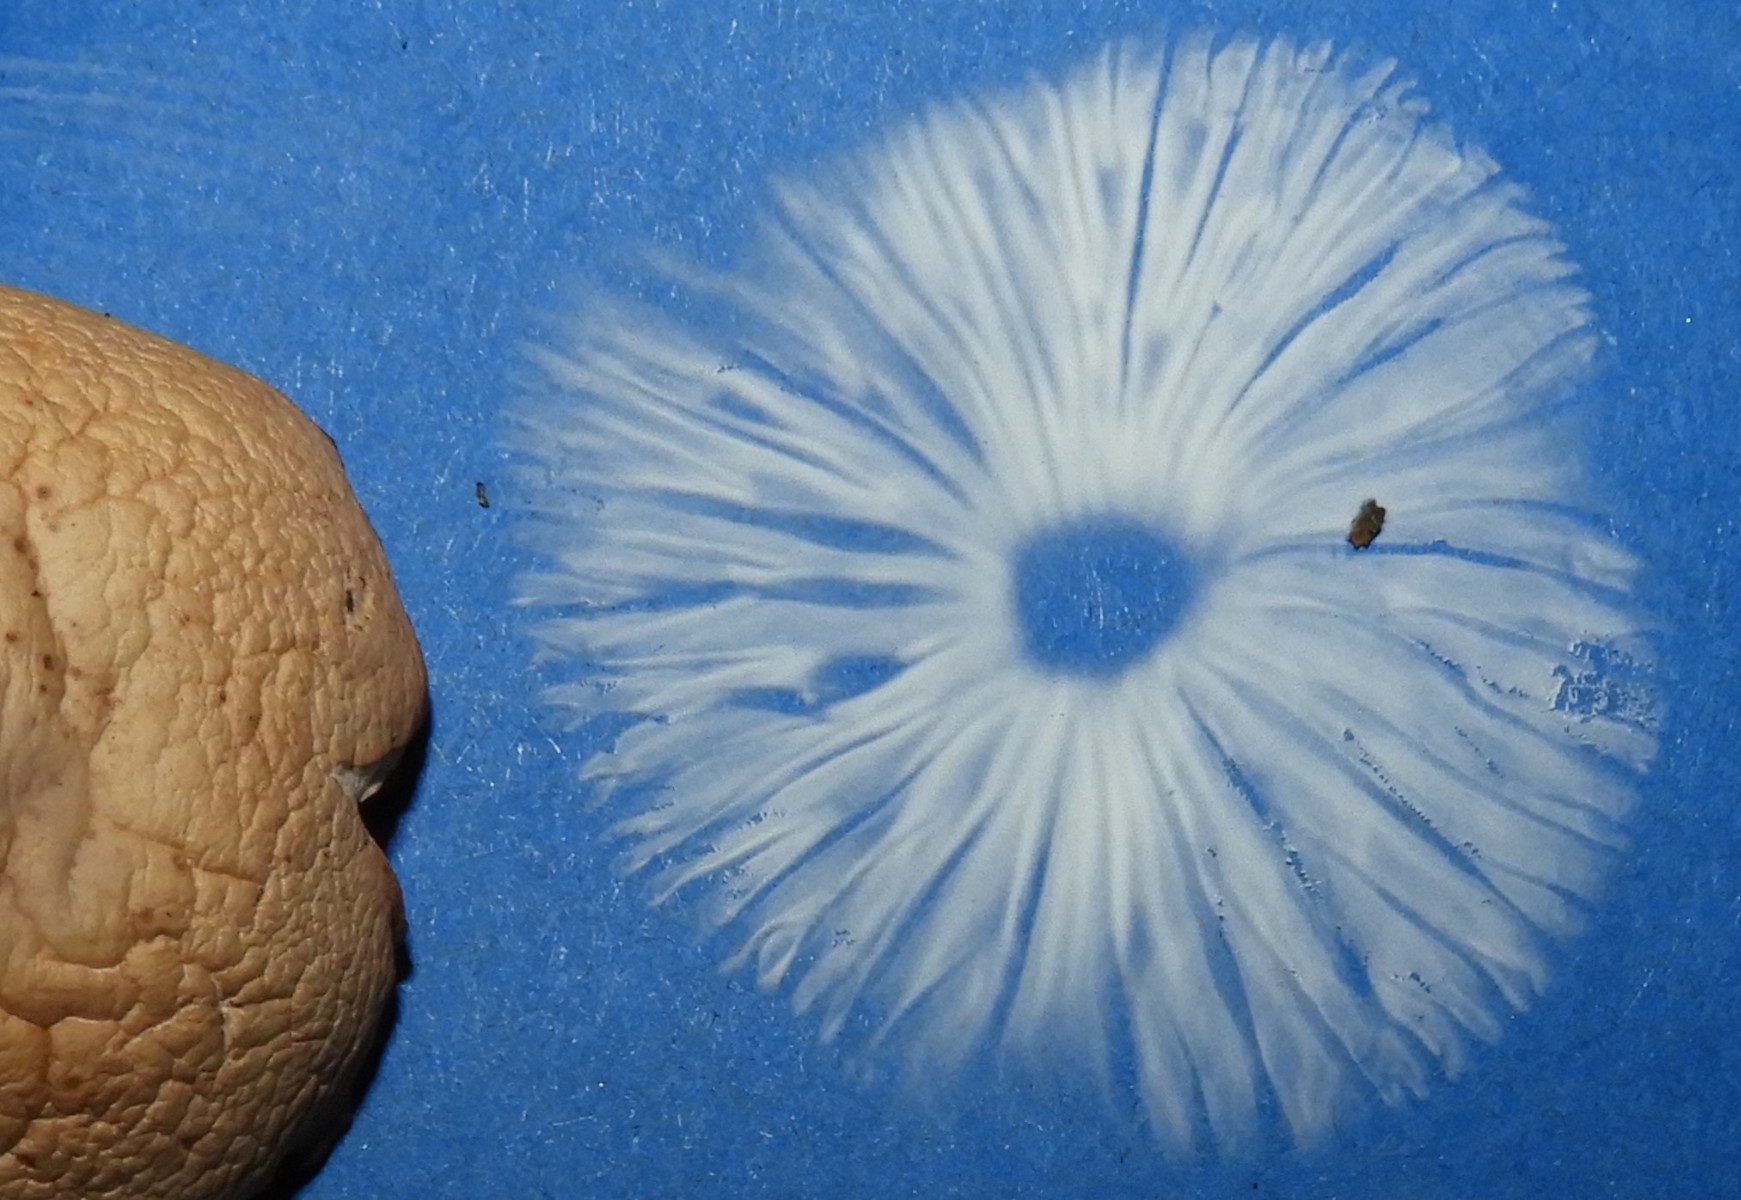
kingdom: Fungi
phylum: Basidiomycota
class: Agaricomycetes
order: Agaricales
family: Marasmiaceae
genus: Marasmius
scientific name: Marasmius oreades
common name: elledans-bruskhat
